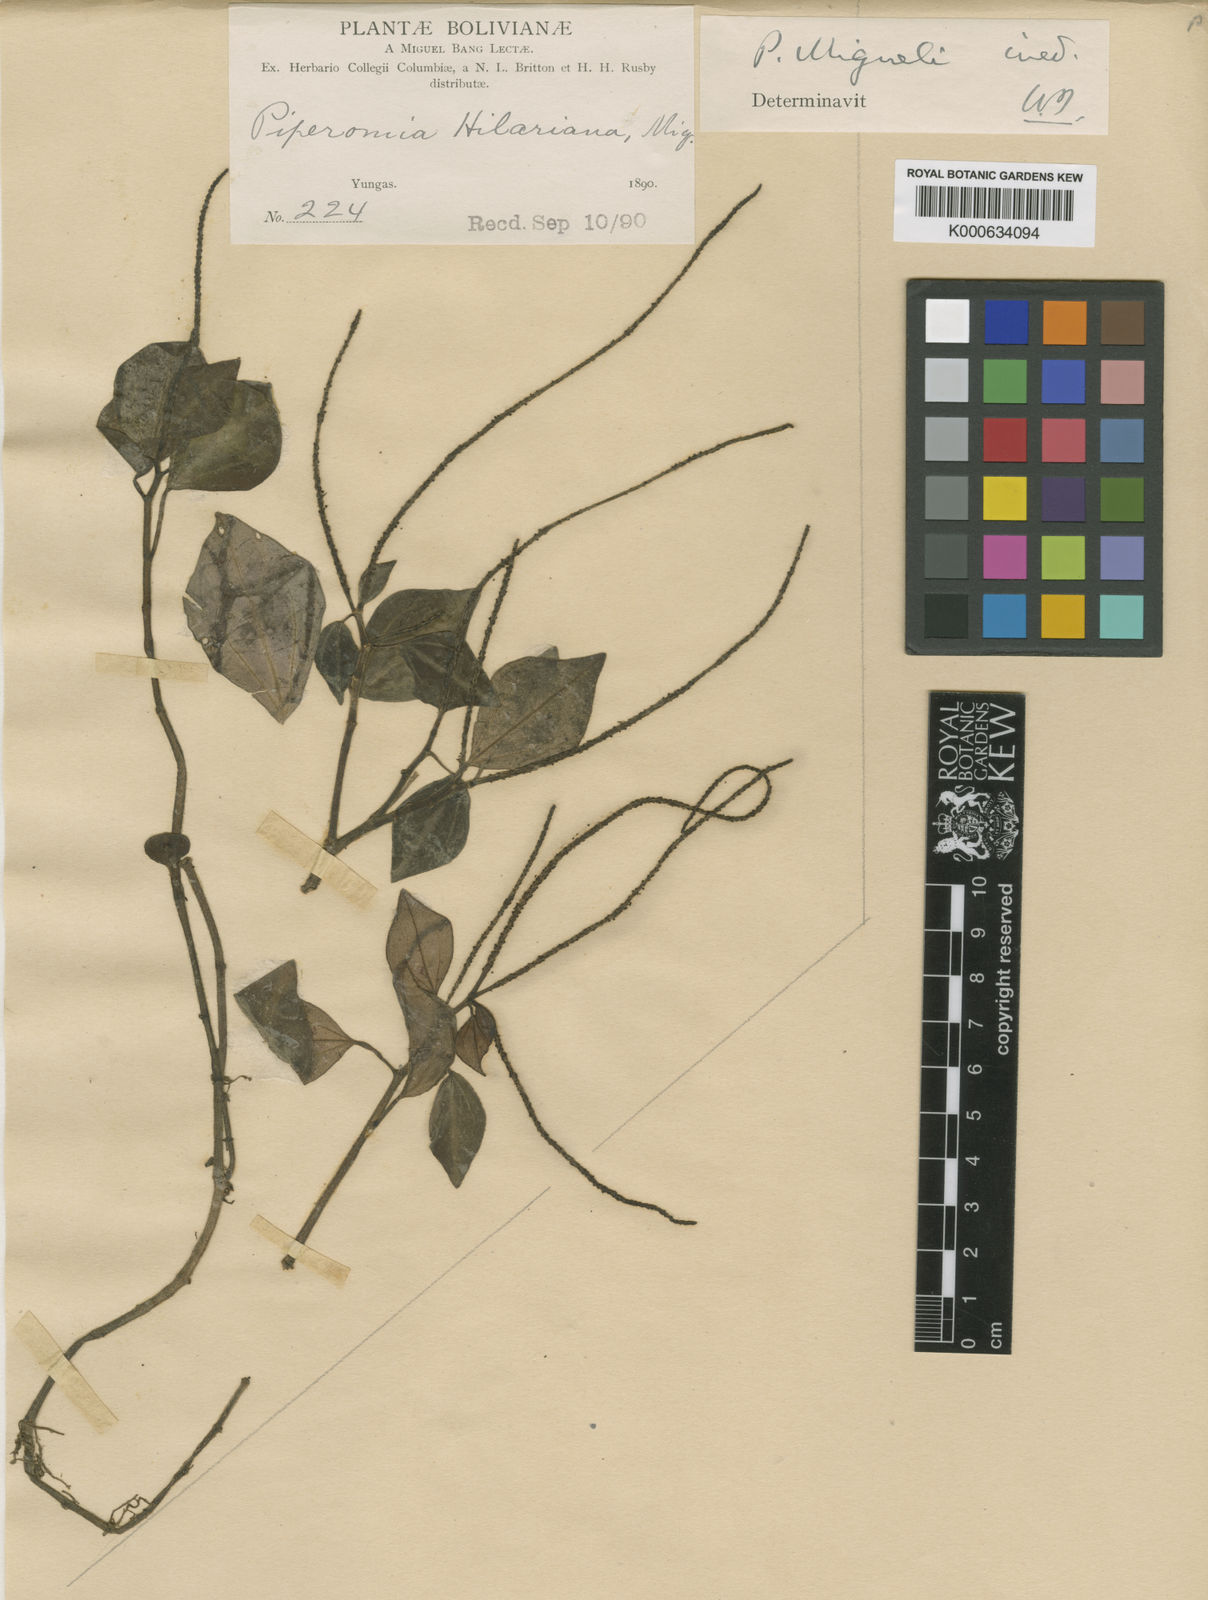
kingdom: Plantae
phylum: Tracheophyta
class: Magnoliopsida
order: Piperales
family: Piperaceae
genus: Peperomia
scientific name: Peperomia
